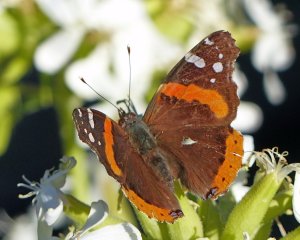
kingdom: Animalia
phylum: Arthropoda
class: Insecta
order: Lepidoptera
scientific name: Lepidoptera
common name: Butterflies
